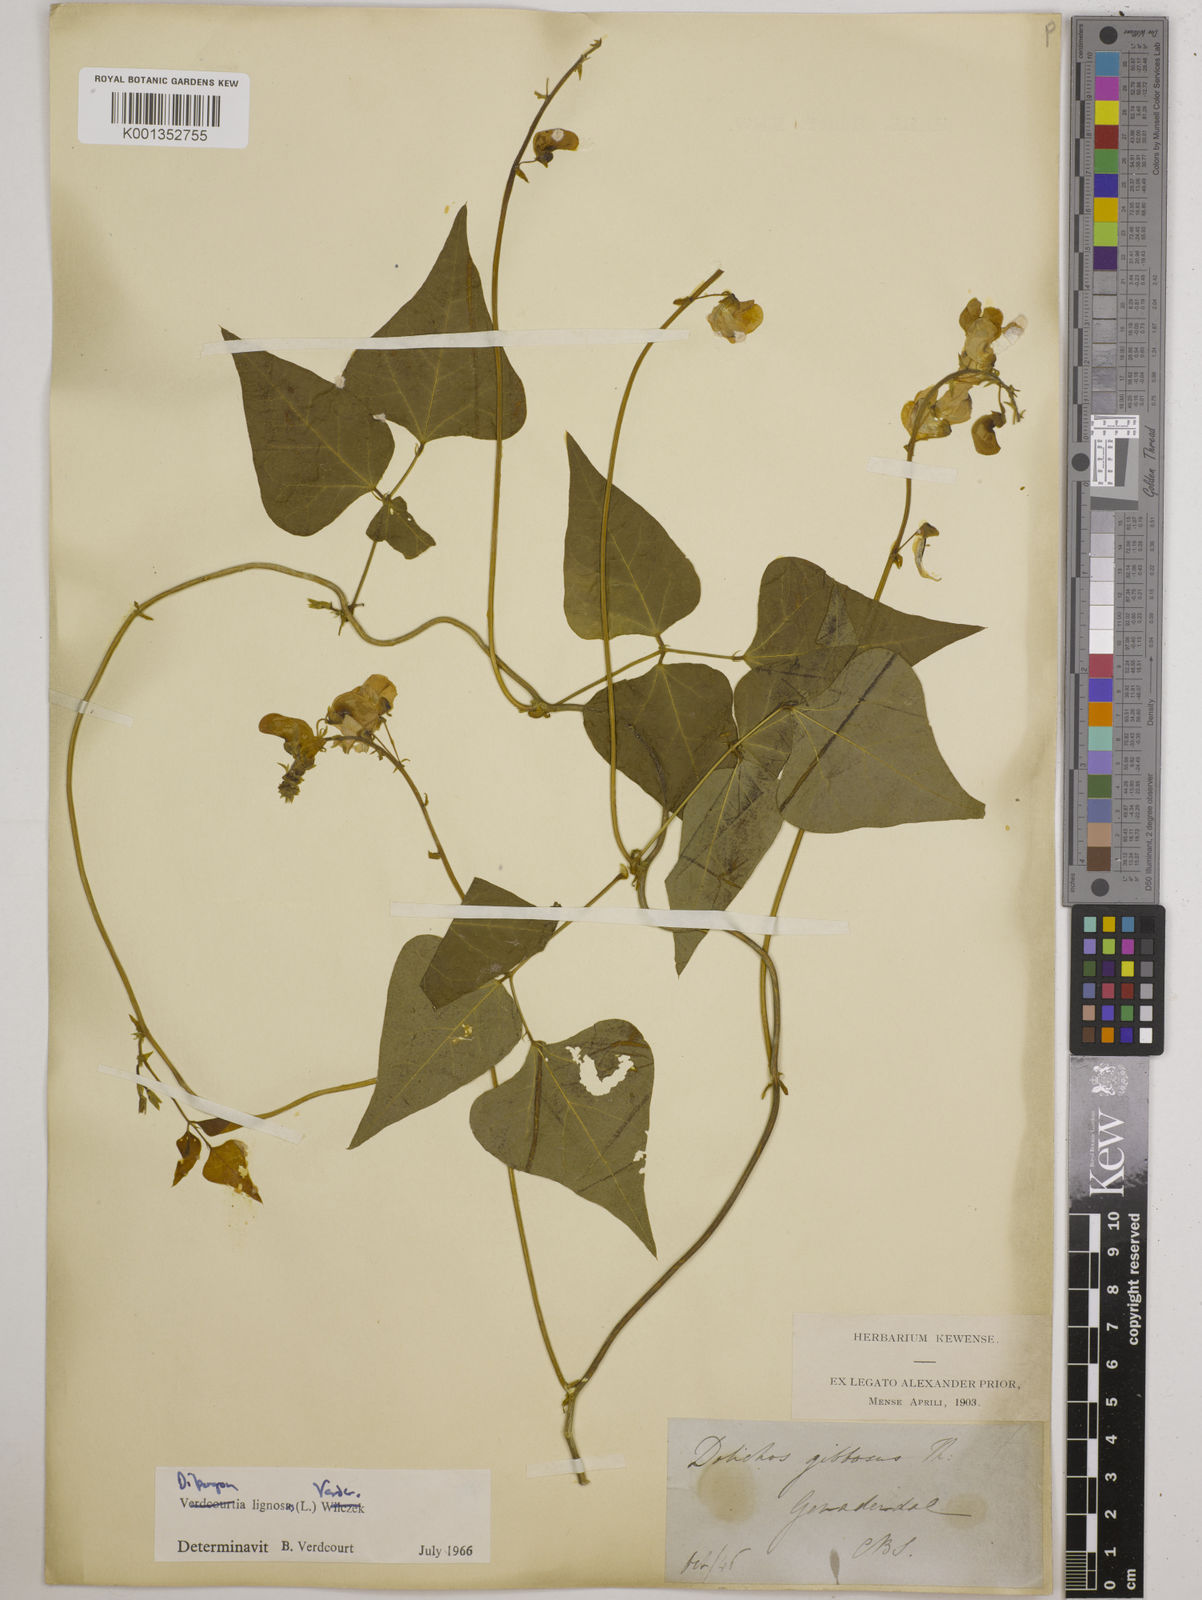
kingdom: Plantae
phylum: Tracheophyta
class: Magnoliopsida
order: Fabales
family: Fabaceae
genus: Dipogon
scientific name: Dipogon lignosus
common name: Okie bean
